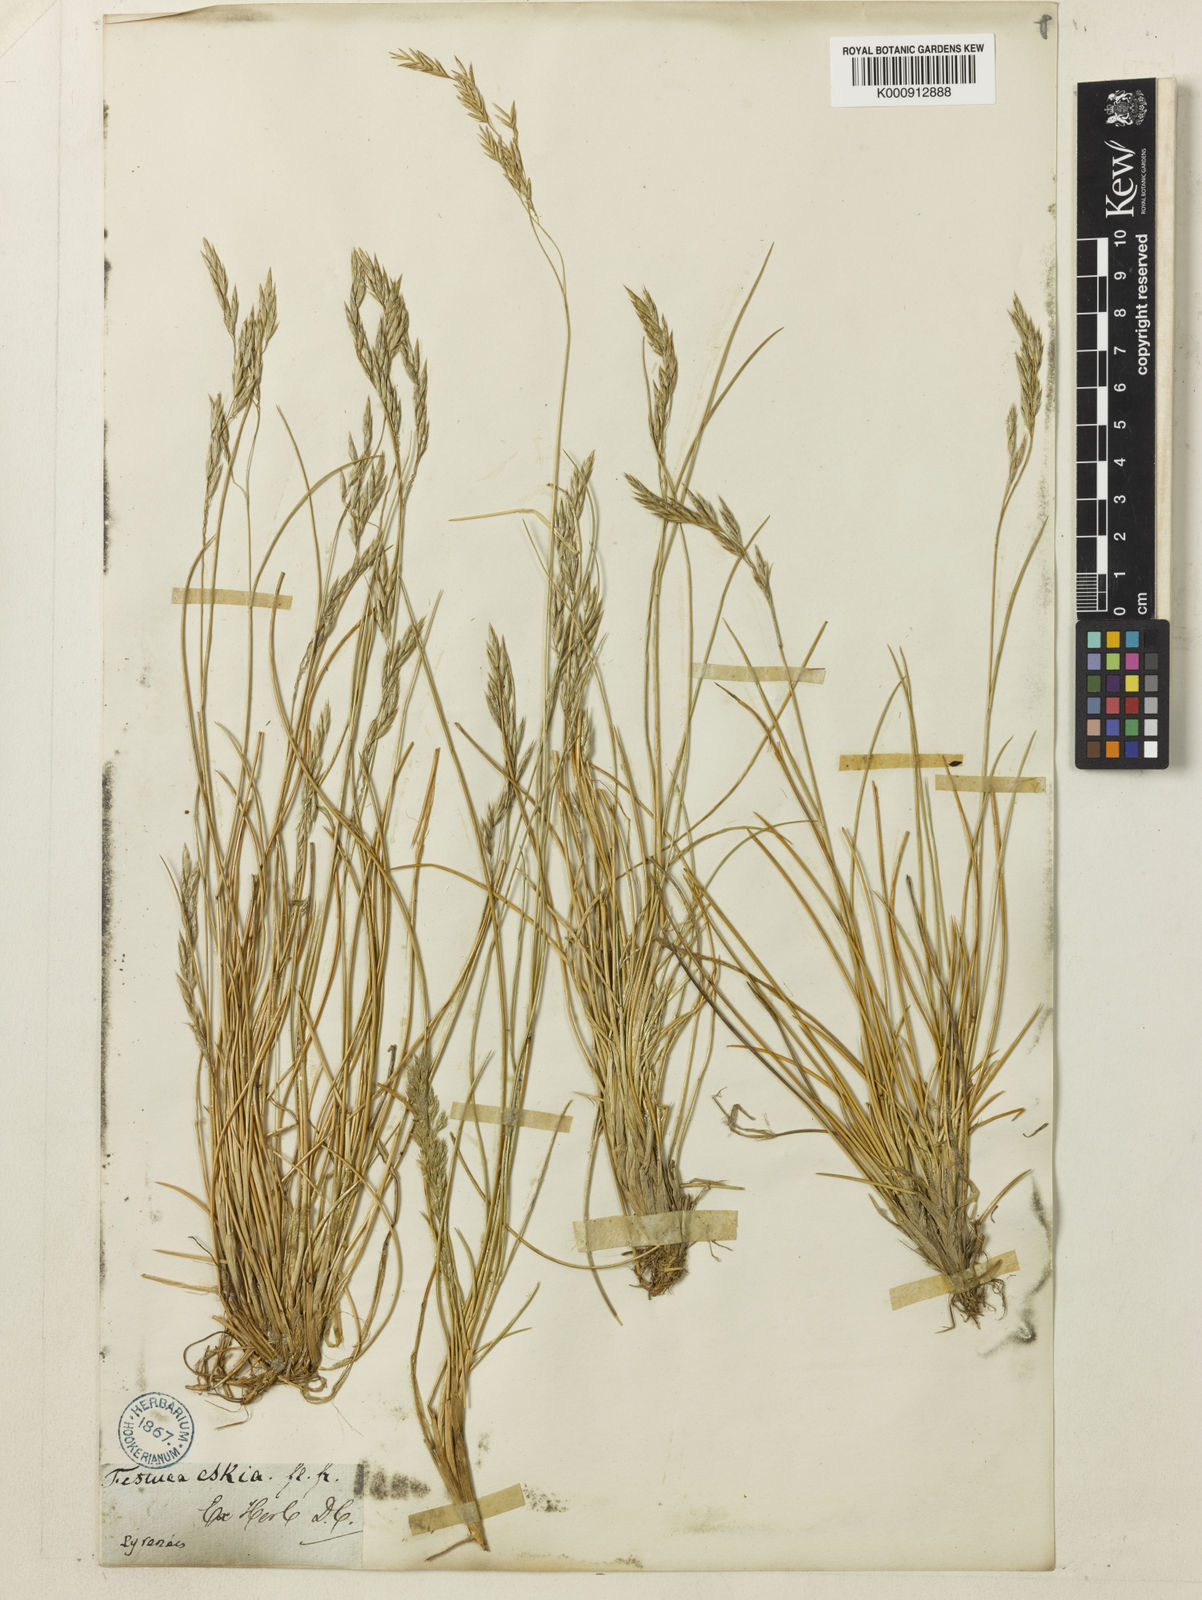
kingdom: Plantae
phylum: Tracheophyta
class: Liliopsida
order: Poales
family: Poaceae
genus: Festuca
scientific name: Festuca eskia
